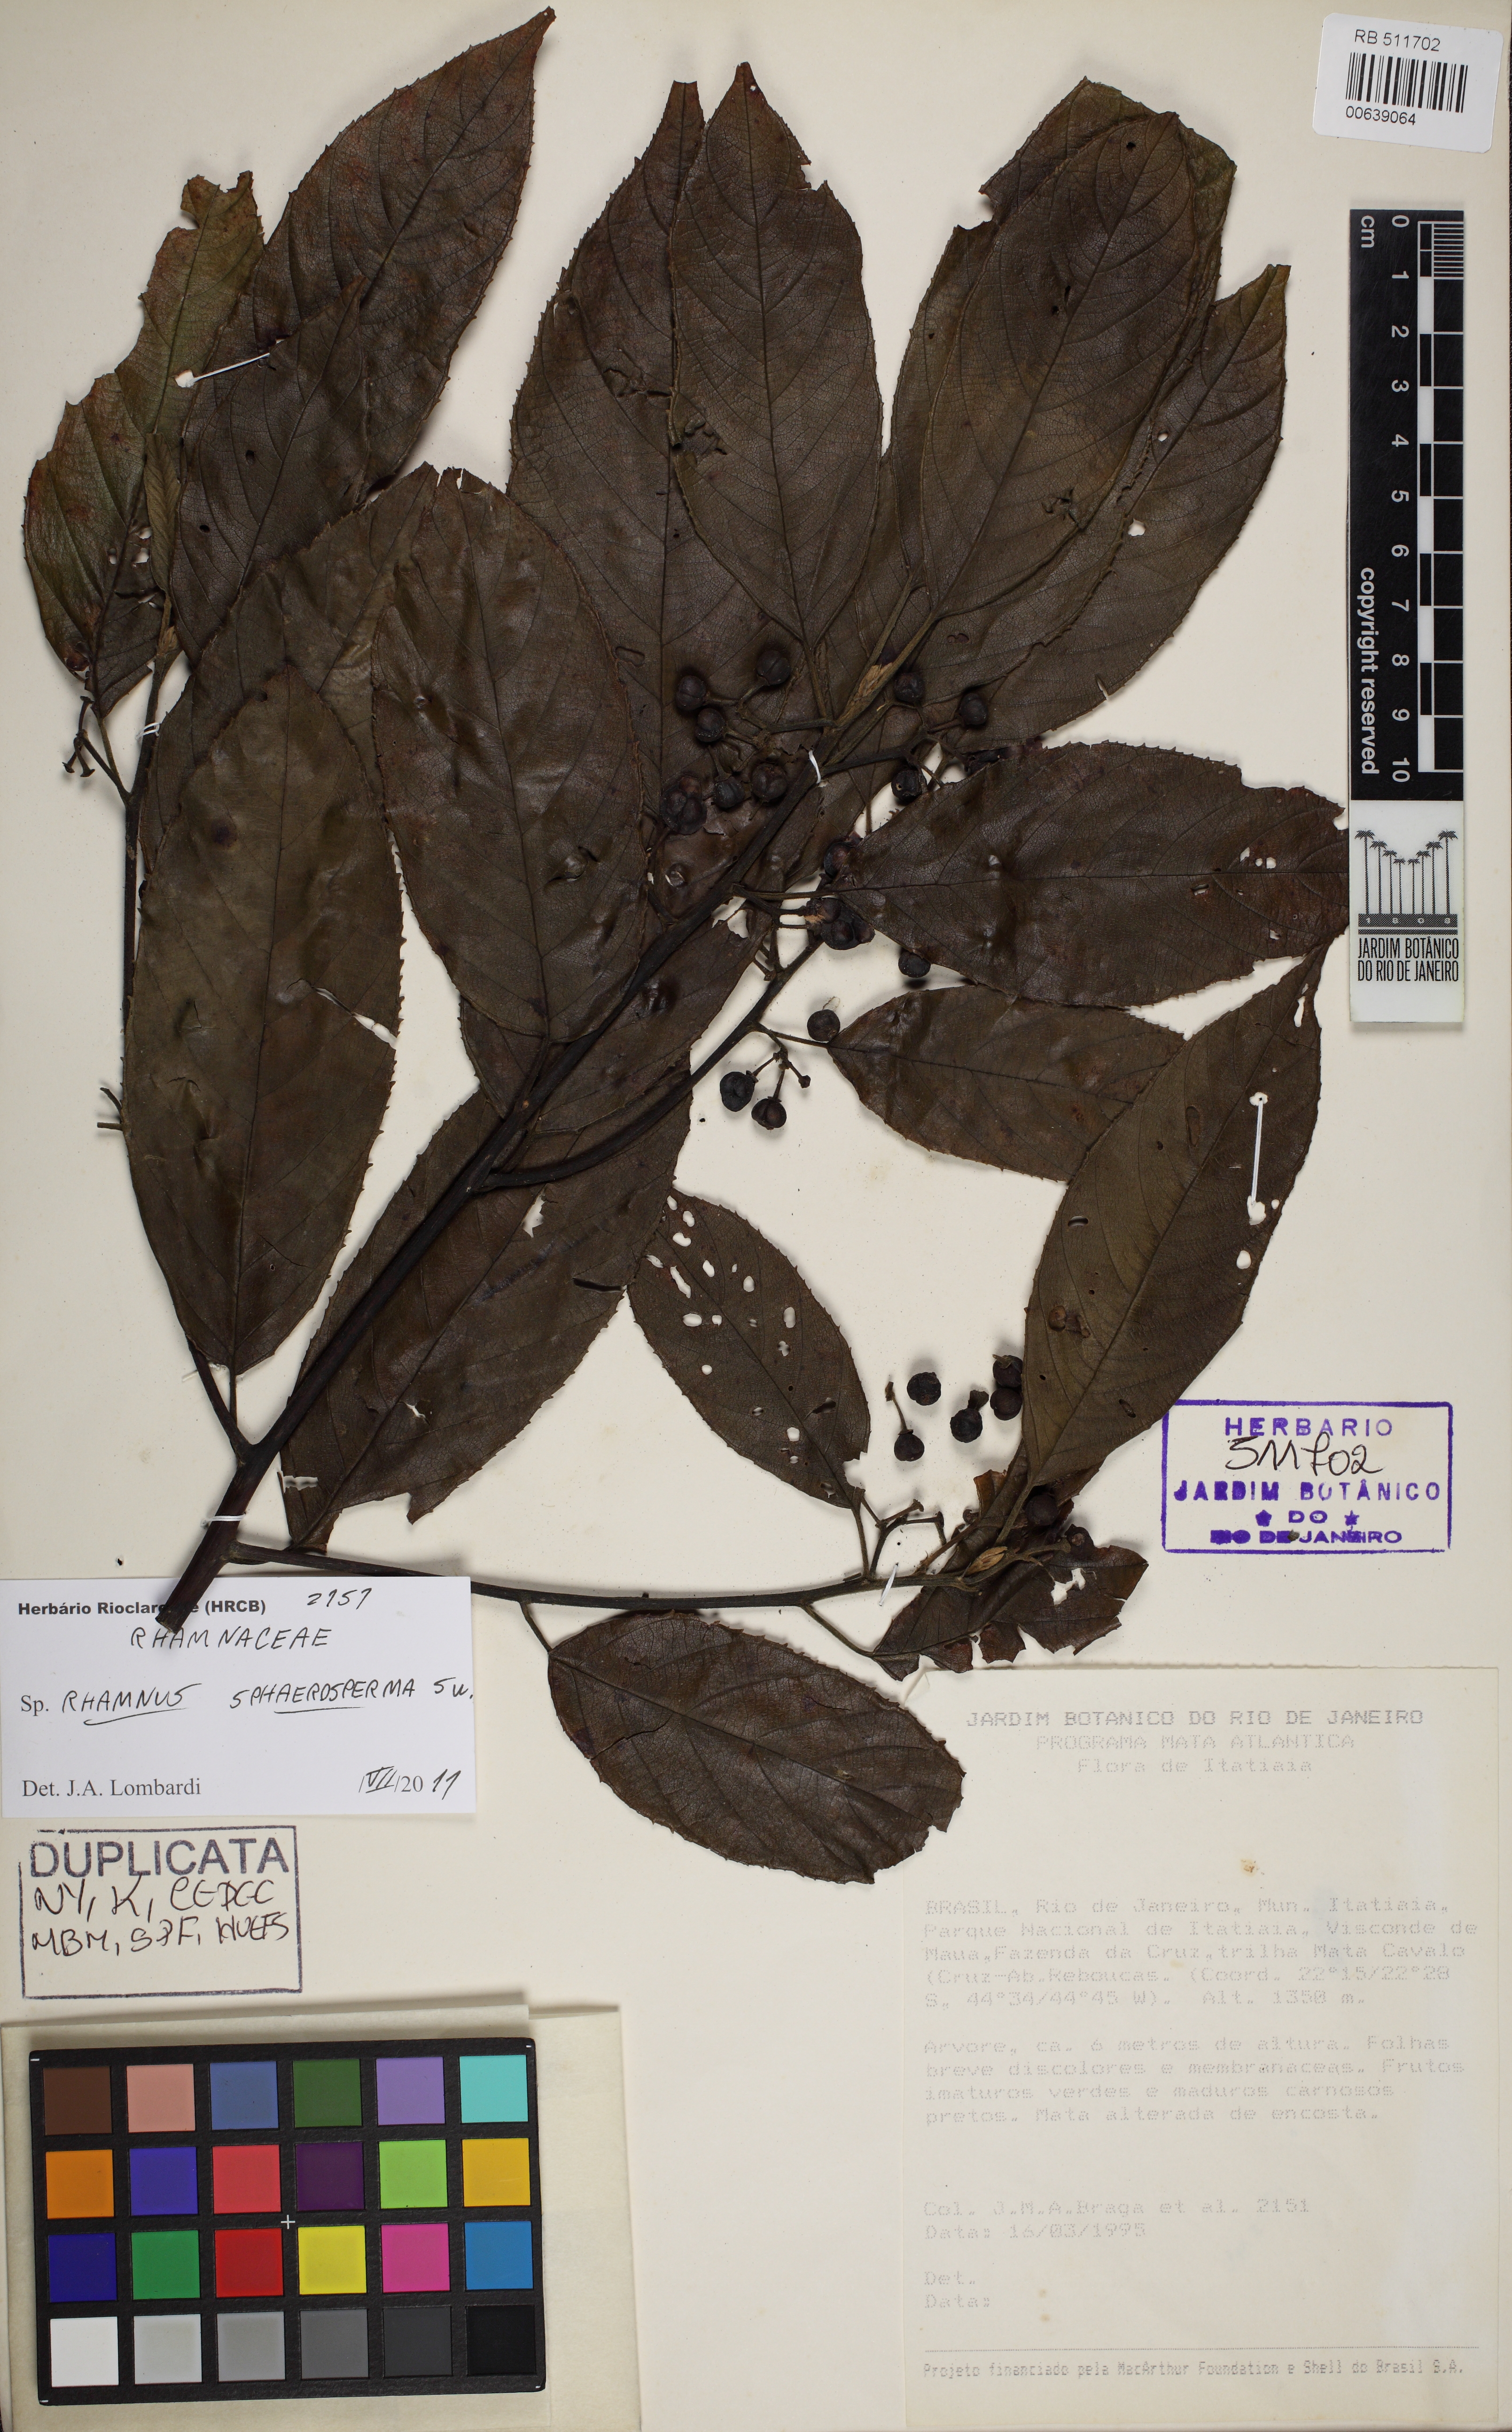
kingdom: Plantae
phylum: Tracheophyta
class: Magnoliopsida
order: Rosales
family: Rhamnaceae
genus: Frangula
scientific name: Frangula sphaerosperma
